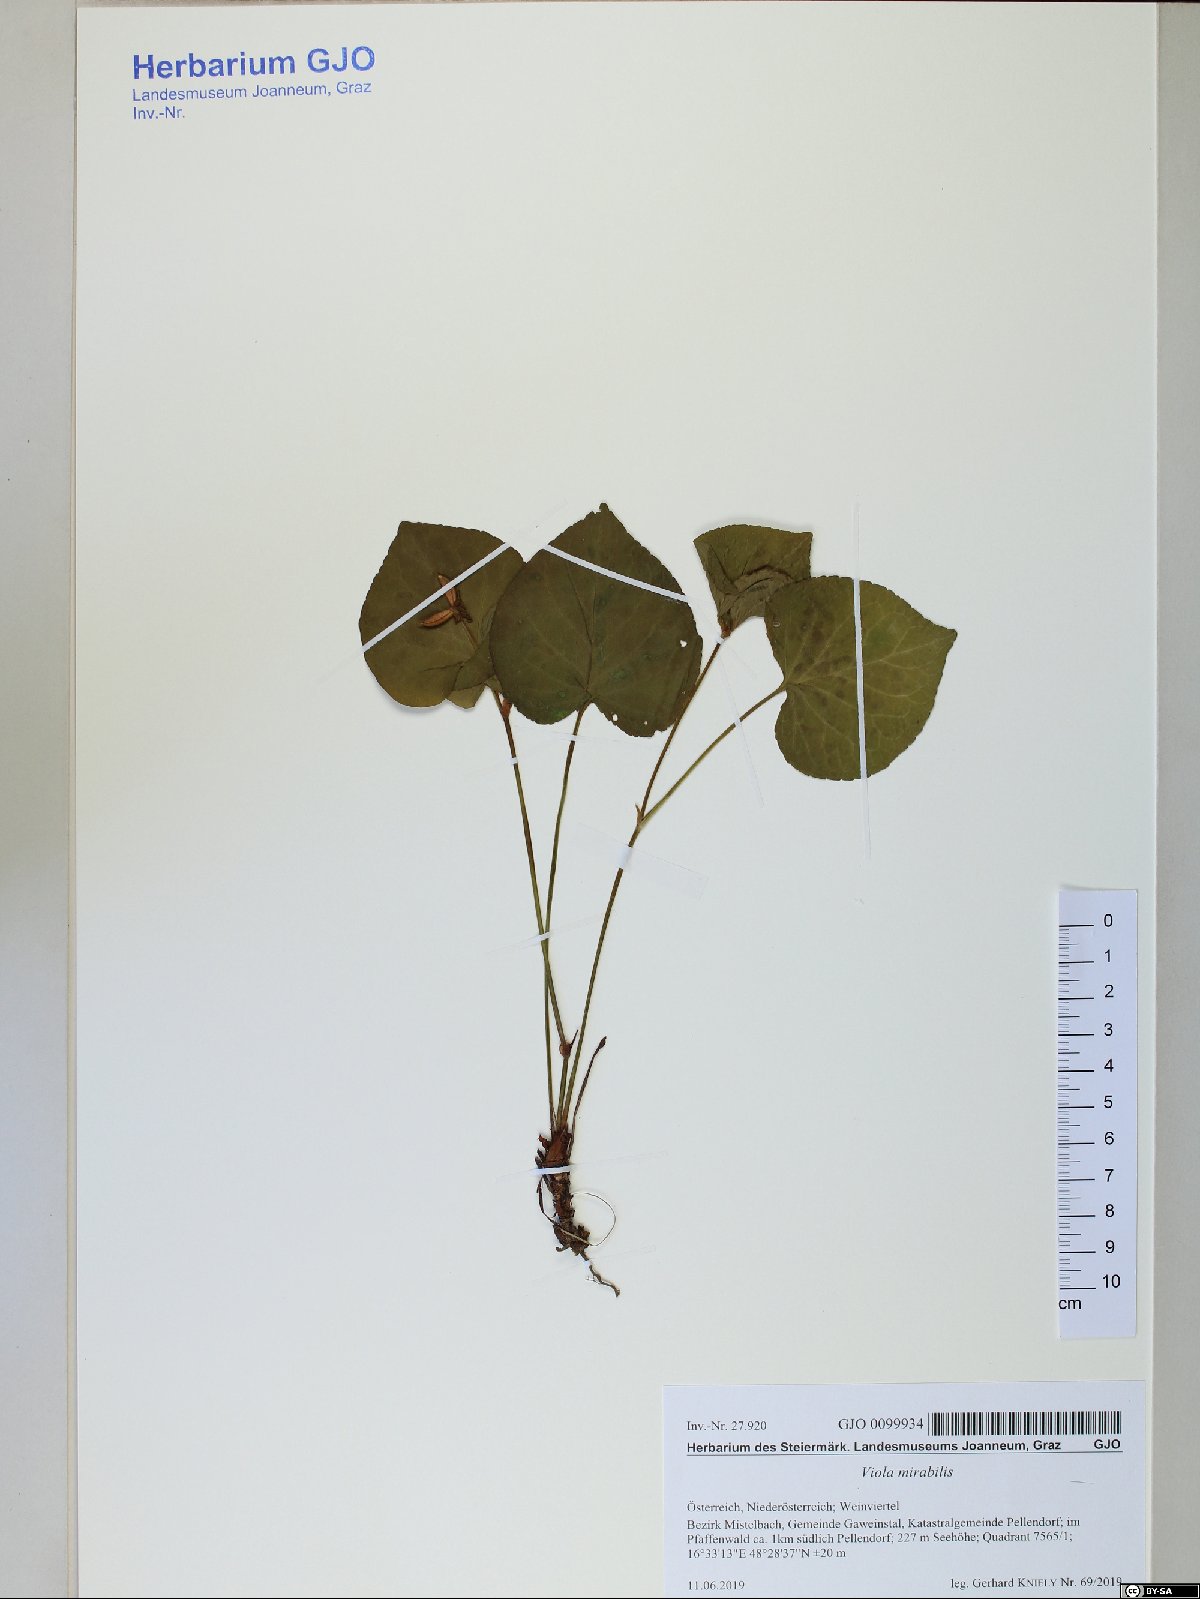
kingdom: Plantae
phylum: Tracheophyta
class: Magnoliopsida
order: Malpighiales
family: Violaceae
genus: Viola
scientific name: Viola mirabilis
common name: Wonder violet
